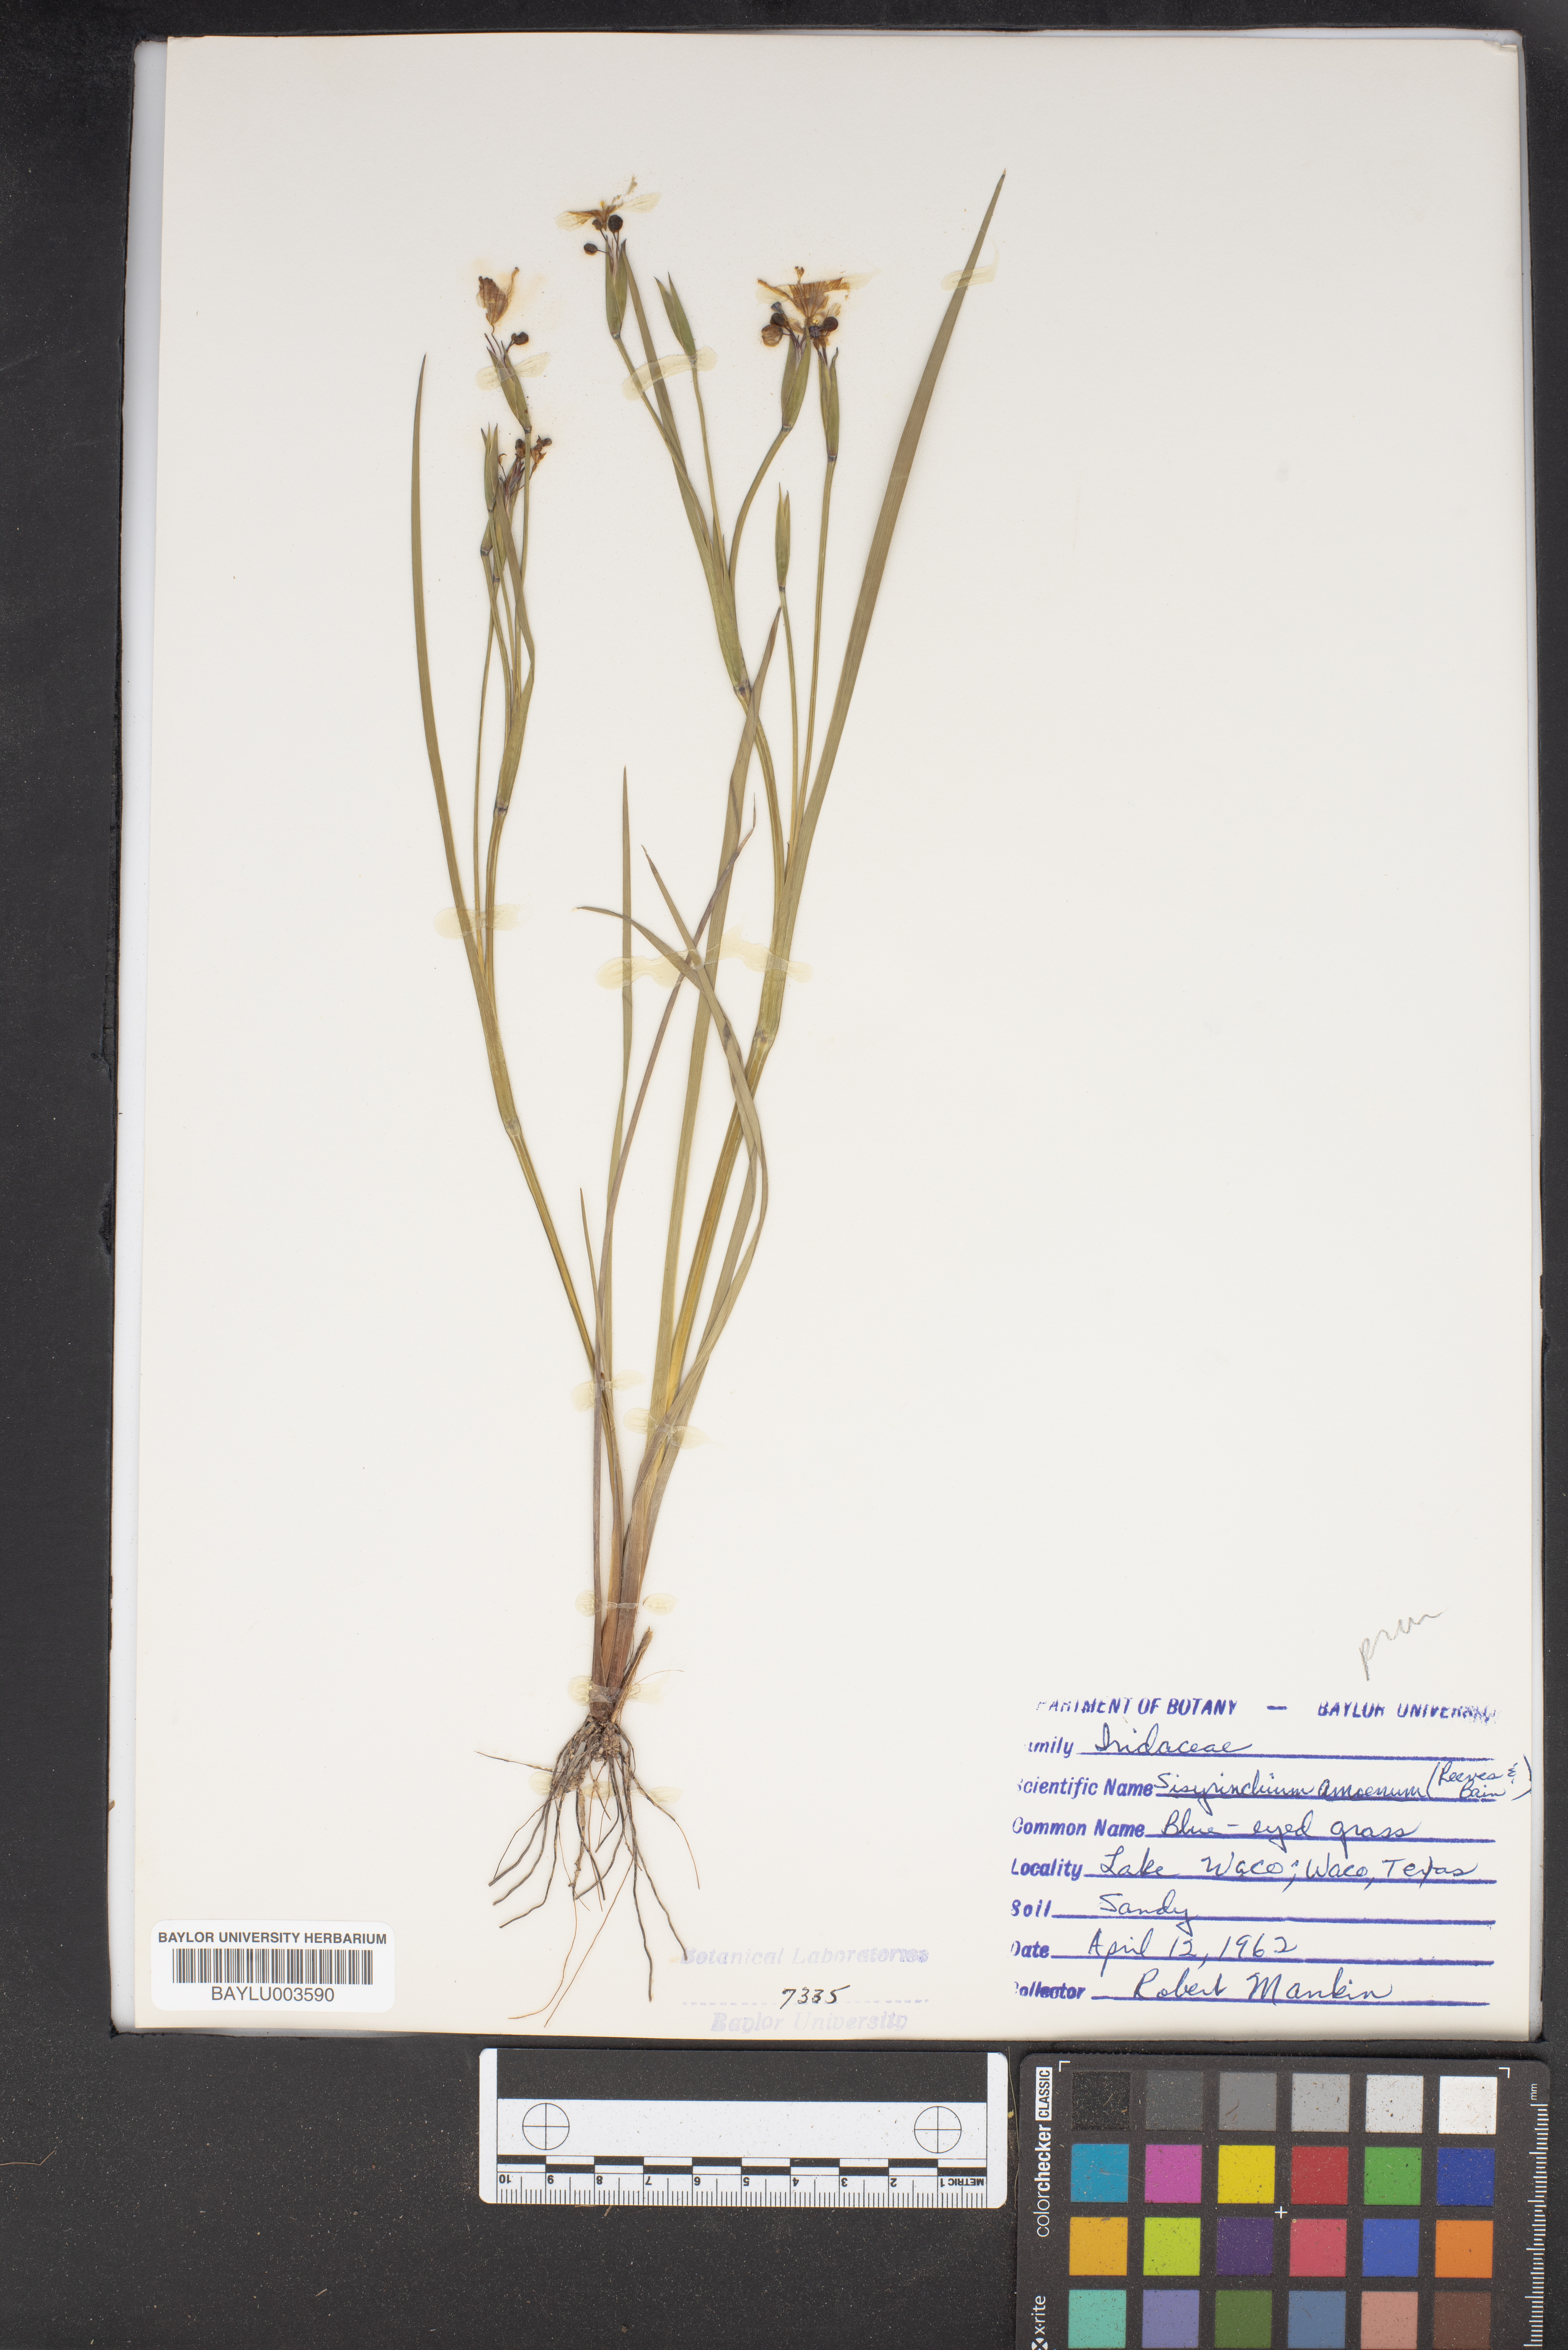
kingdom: Plantae
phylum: Tracheophyta
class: Liliopsida
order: Asparagales
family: Iridaceae
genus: Sisyrinchium
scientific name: Sisyrinchium ensigerum
